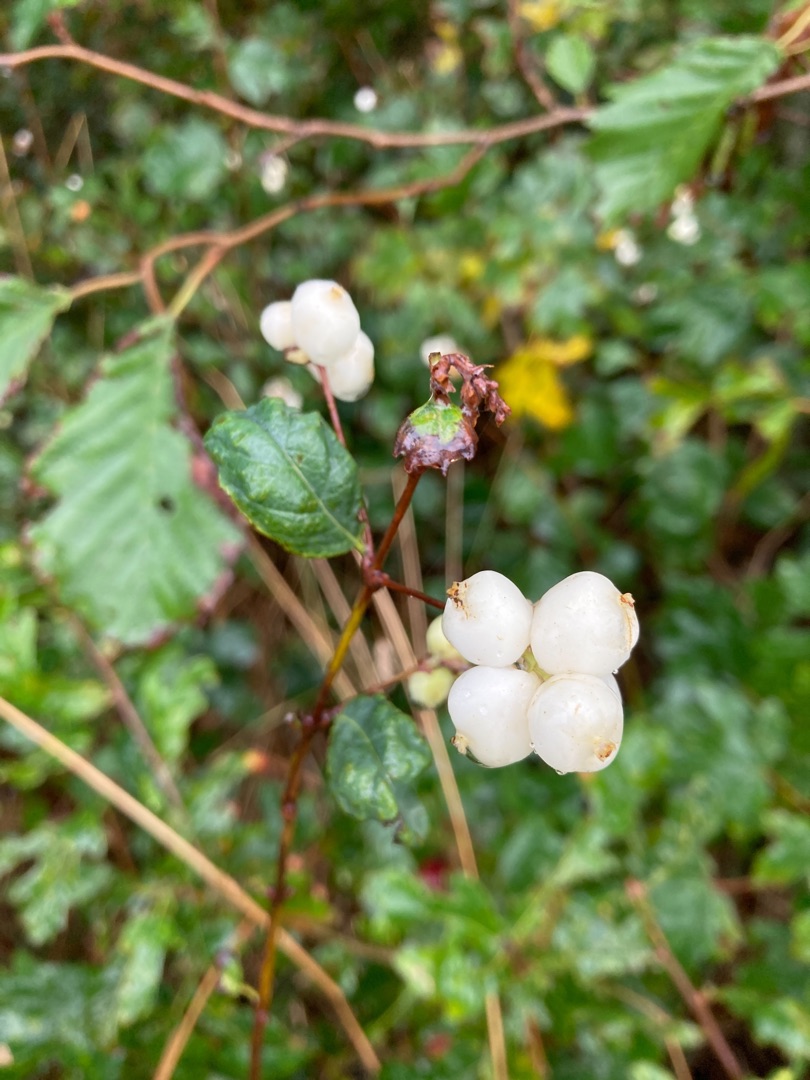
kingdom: Plantae
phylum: Tracheophyta
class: Magnoliopsida
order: Dipsacales
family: Caprifoliaceae
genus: Symphoricarpos
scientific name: Symphoricarpos albus
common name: Almindelig snebær
